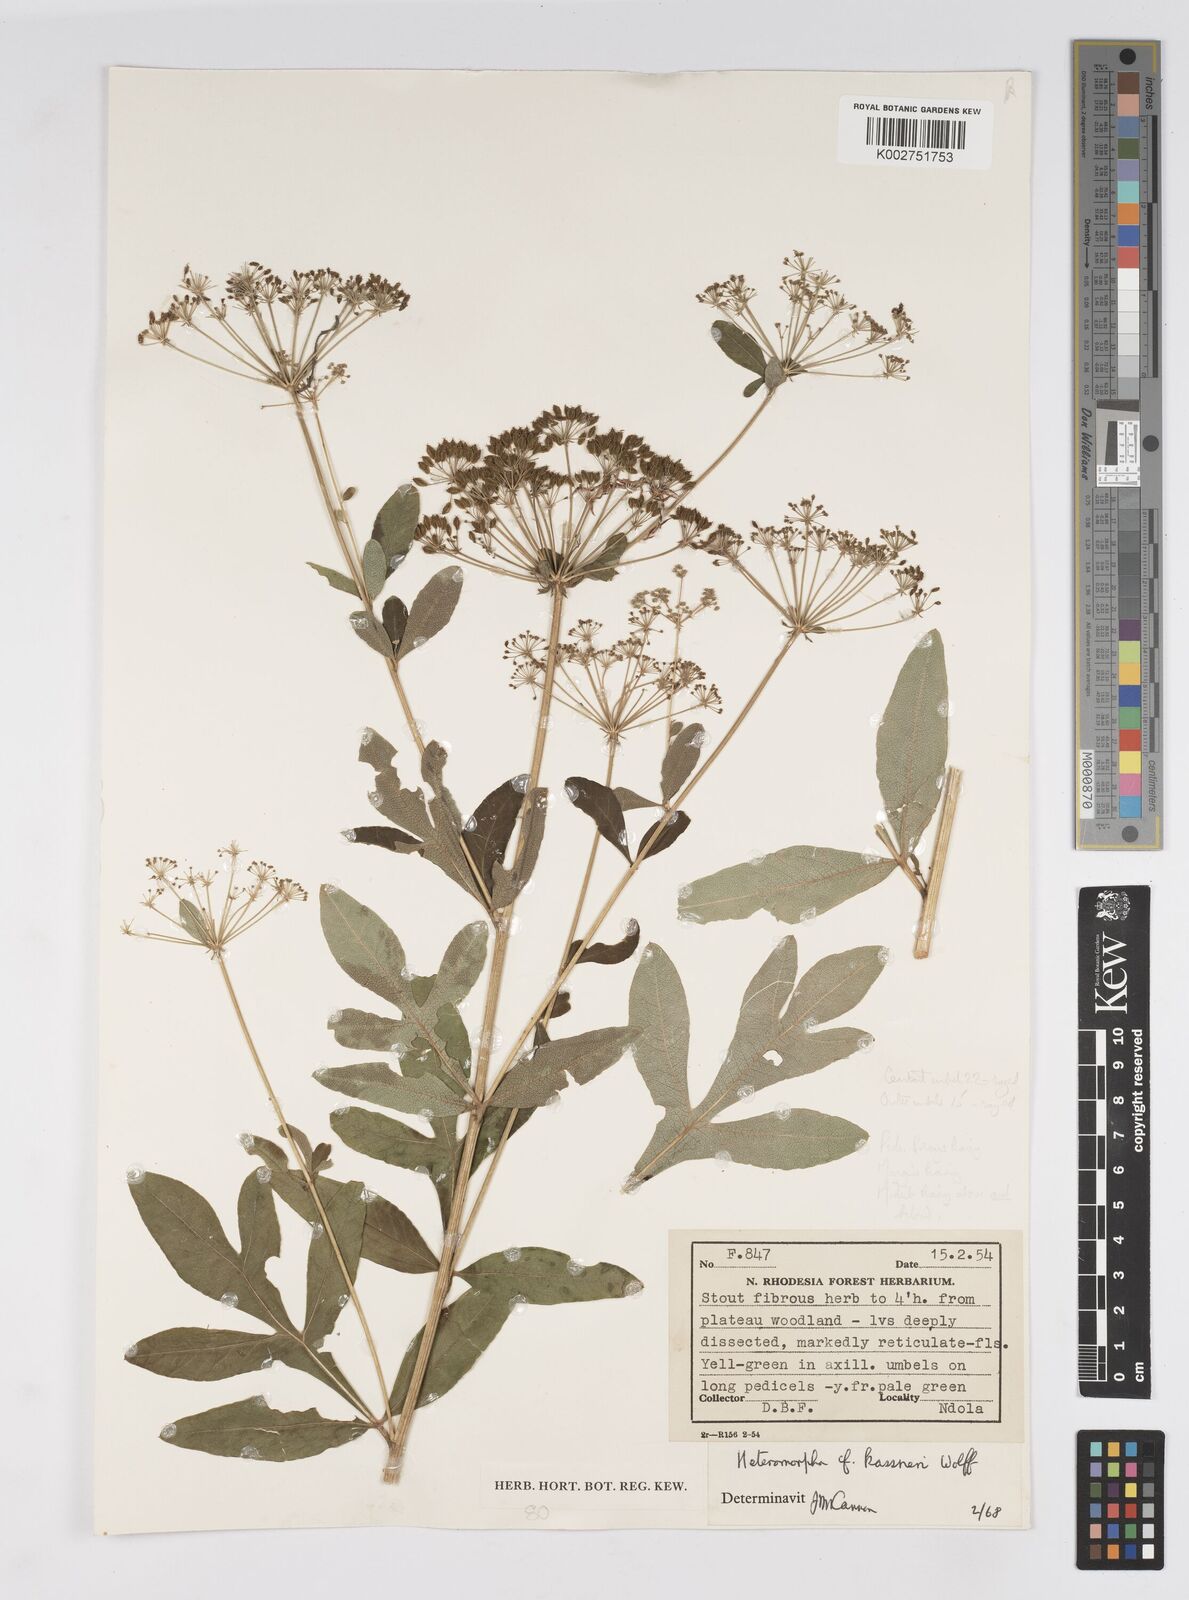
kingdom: Plantae
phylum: Tracheophyta
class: Magnoliopsida
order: Apiales
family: Apiaceae
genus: Heteromorpha
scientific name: Heteromorpha involucrata
